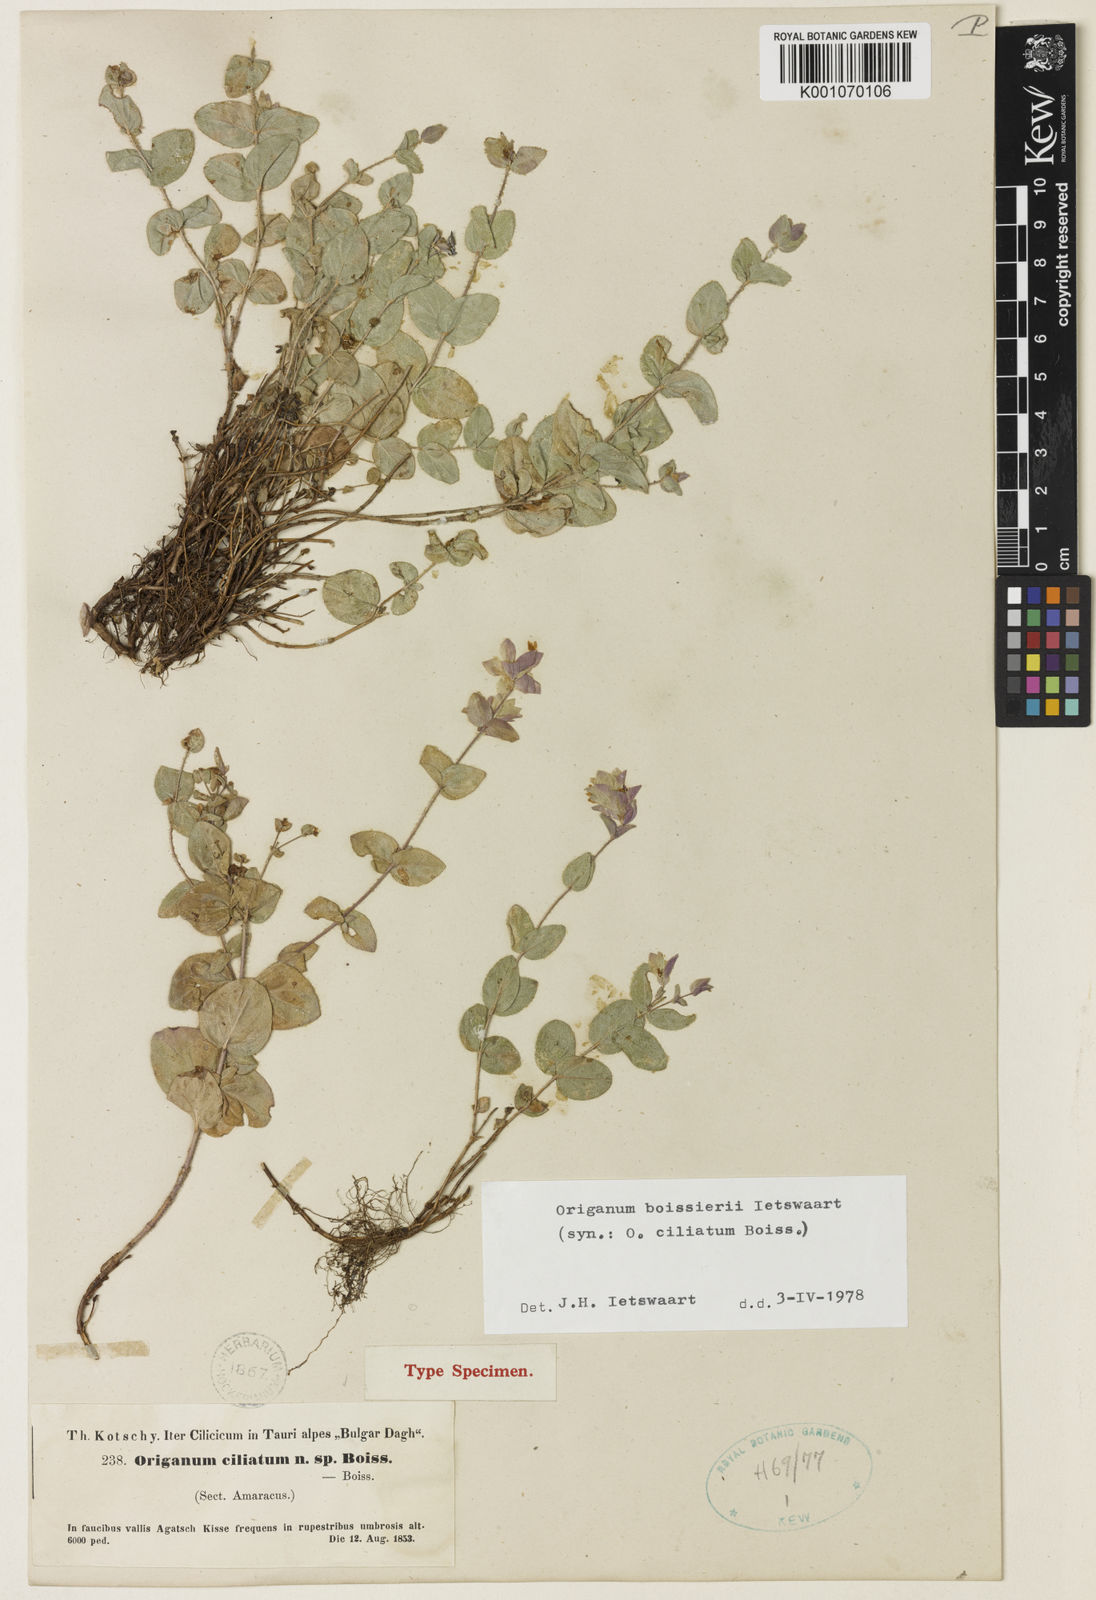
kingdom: Plantae
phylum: Tracheophyta
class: Magnoliopsida
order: Lamiales
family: Lamiaceae
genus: Origanum
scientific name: Origanum boissieri
